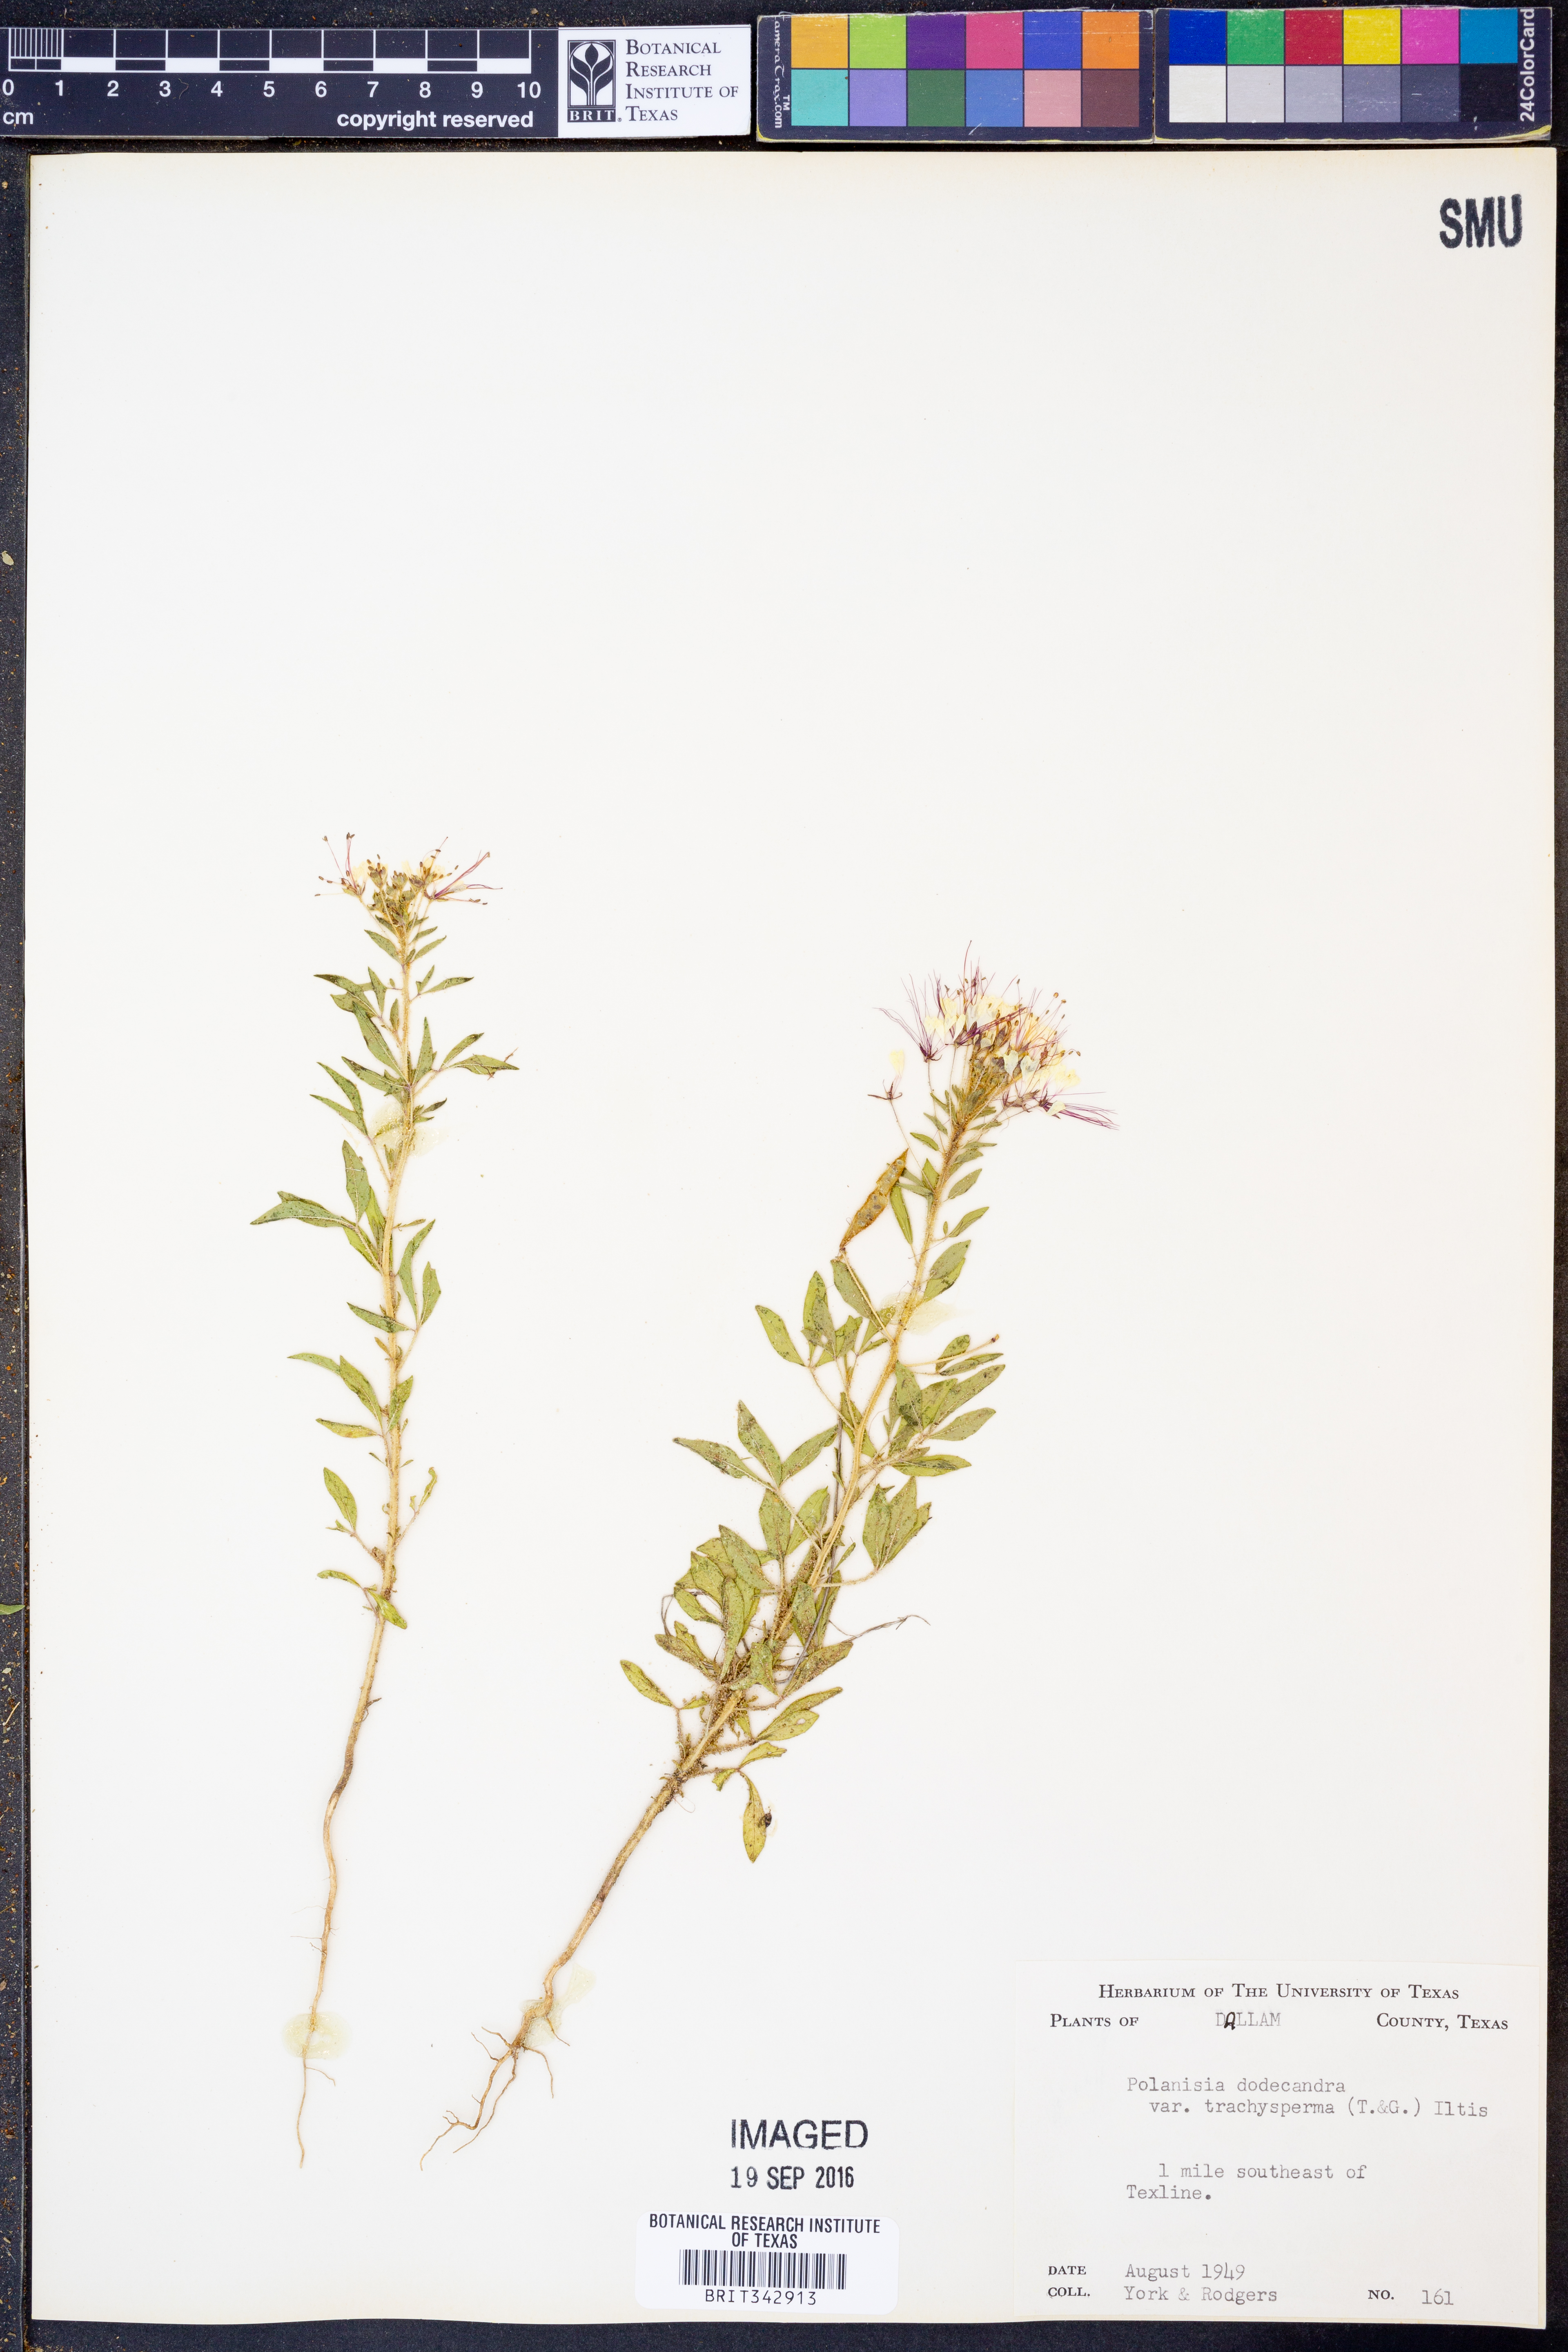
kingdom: Plantae
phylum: Tracheophyta
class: Magnoliopsida
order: Brassicales
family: Cleomaceae
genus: Polanisia
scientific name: Polanisia trachysperma
